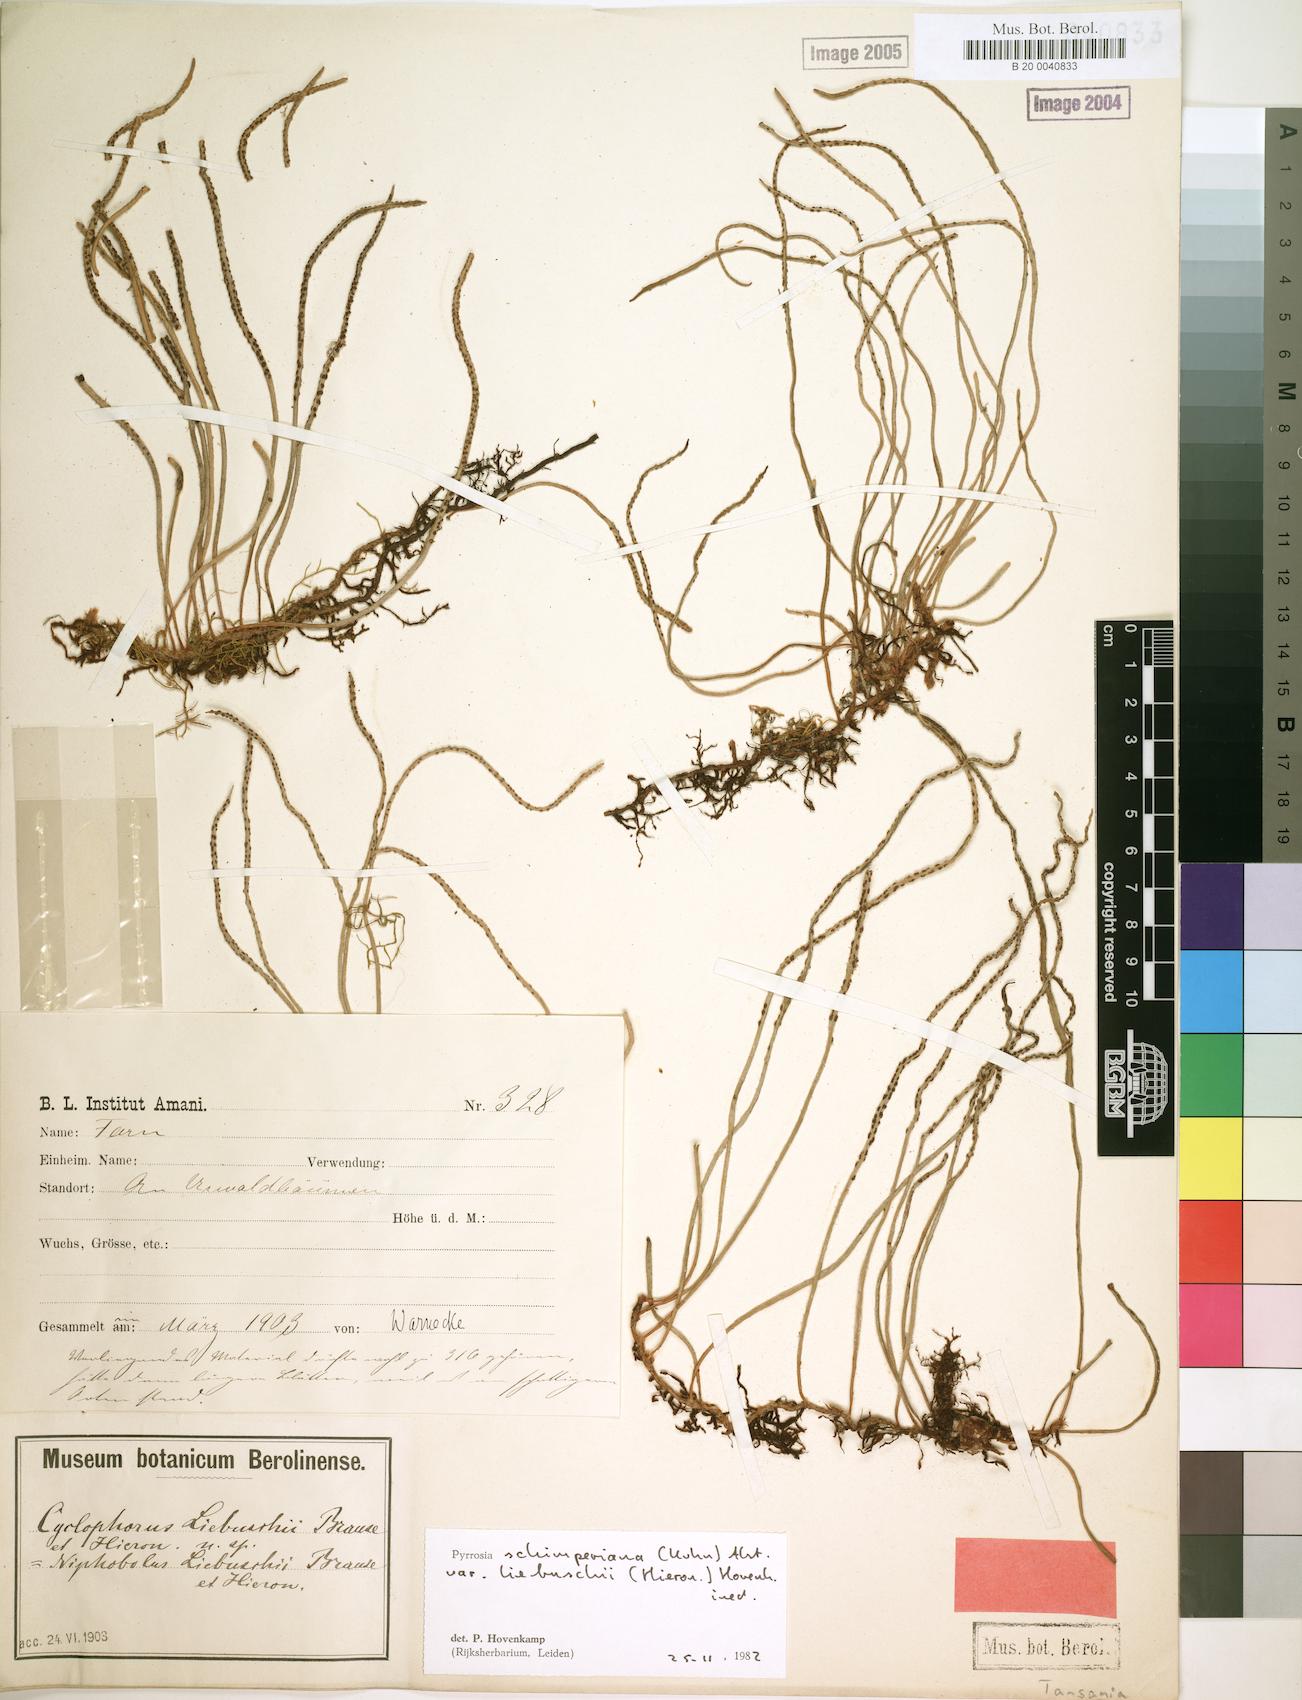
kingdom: Plantae
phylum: Tracheophyta
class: Polypodiopsida
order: Polypodiales
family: Polypodiaceae
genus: Hovenkampia
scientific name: Hovenkampia liebuschii
